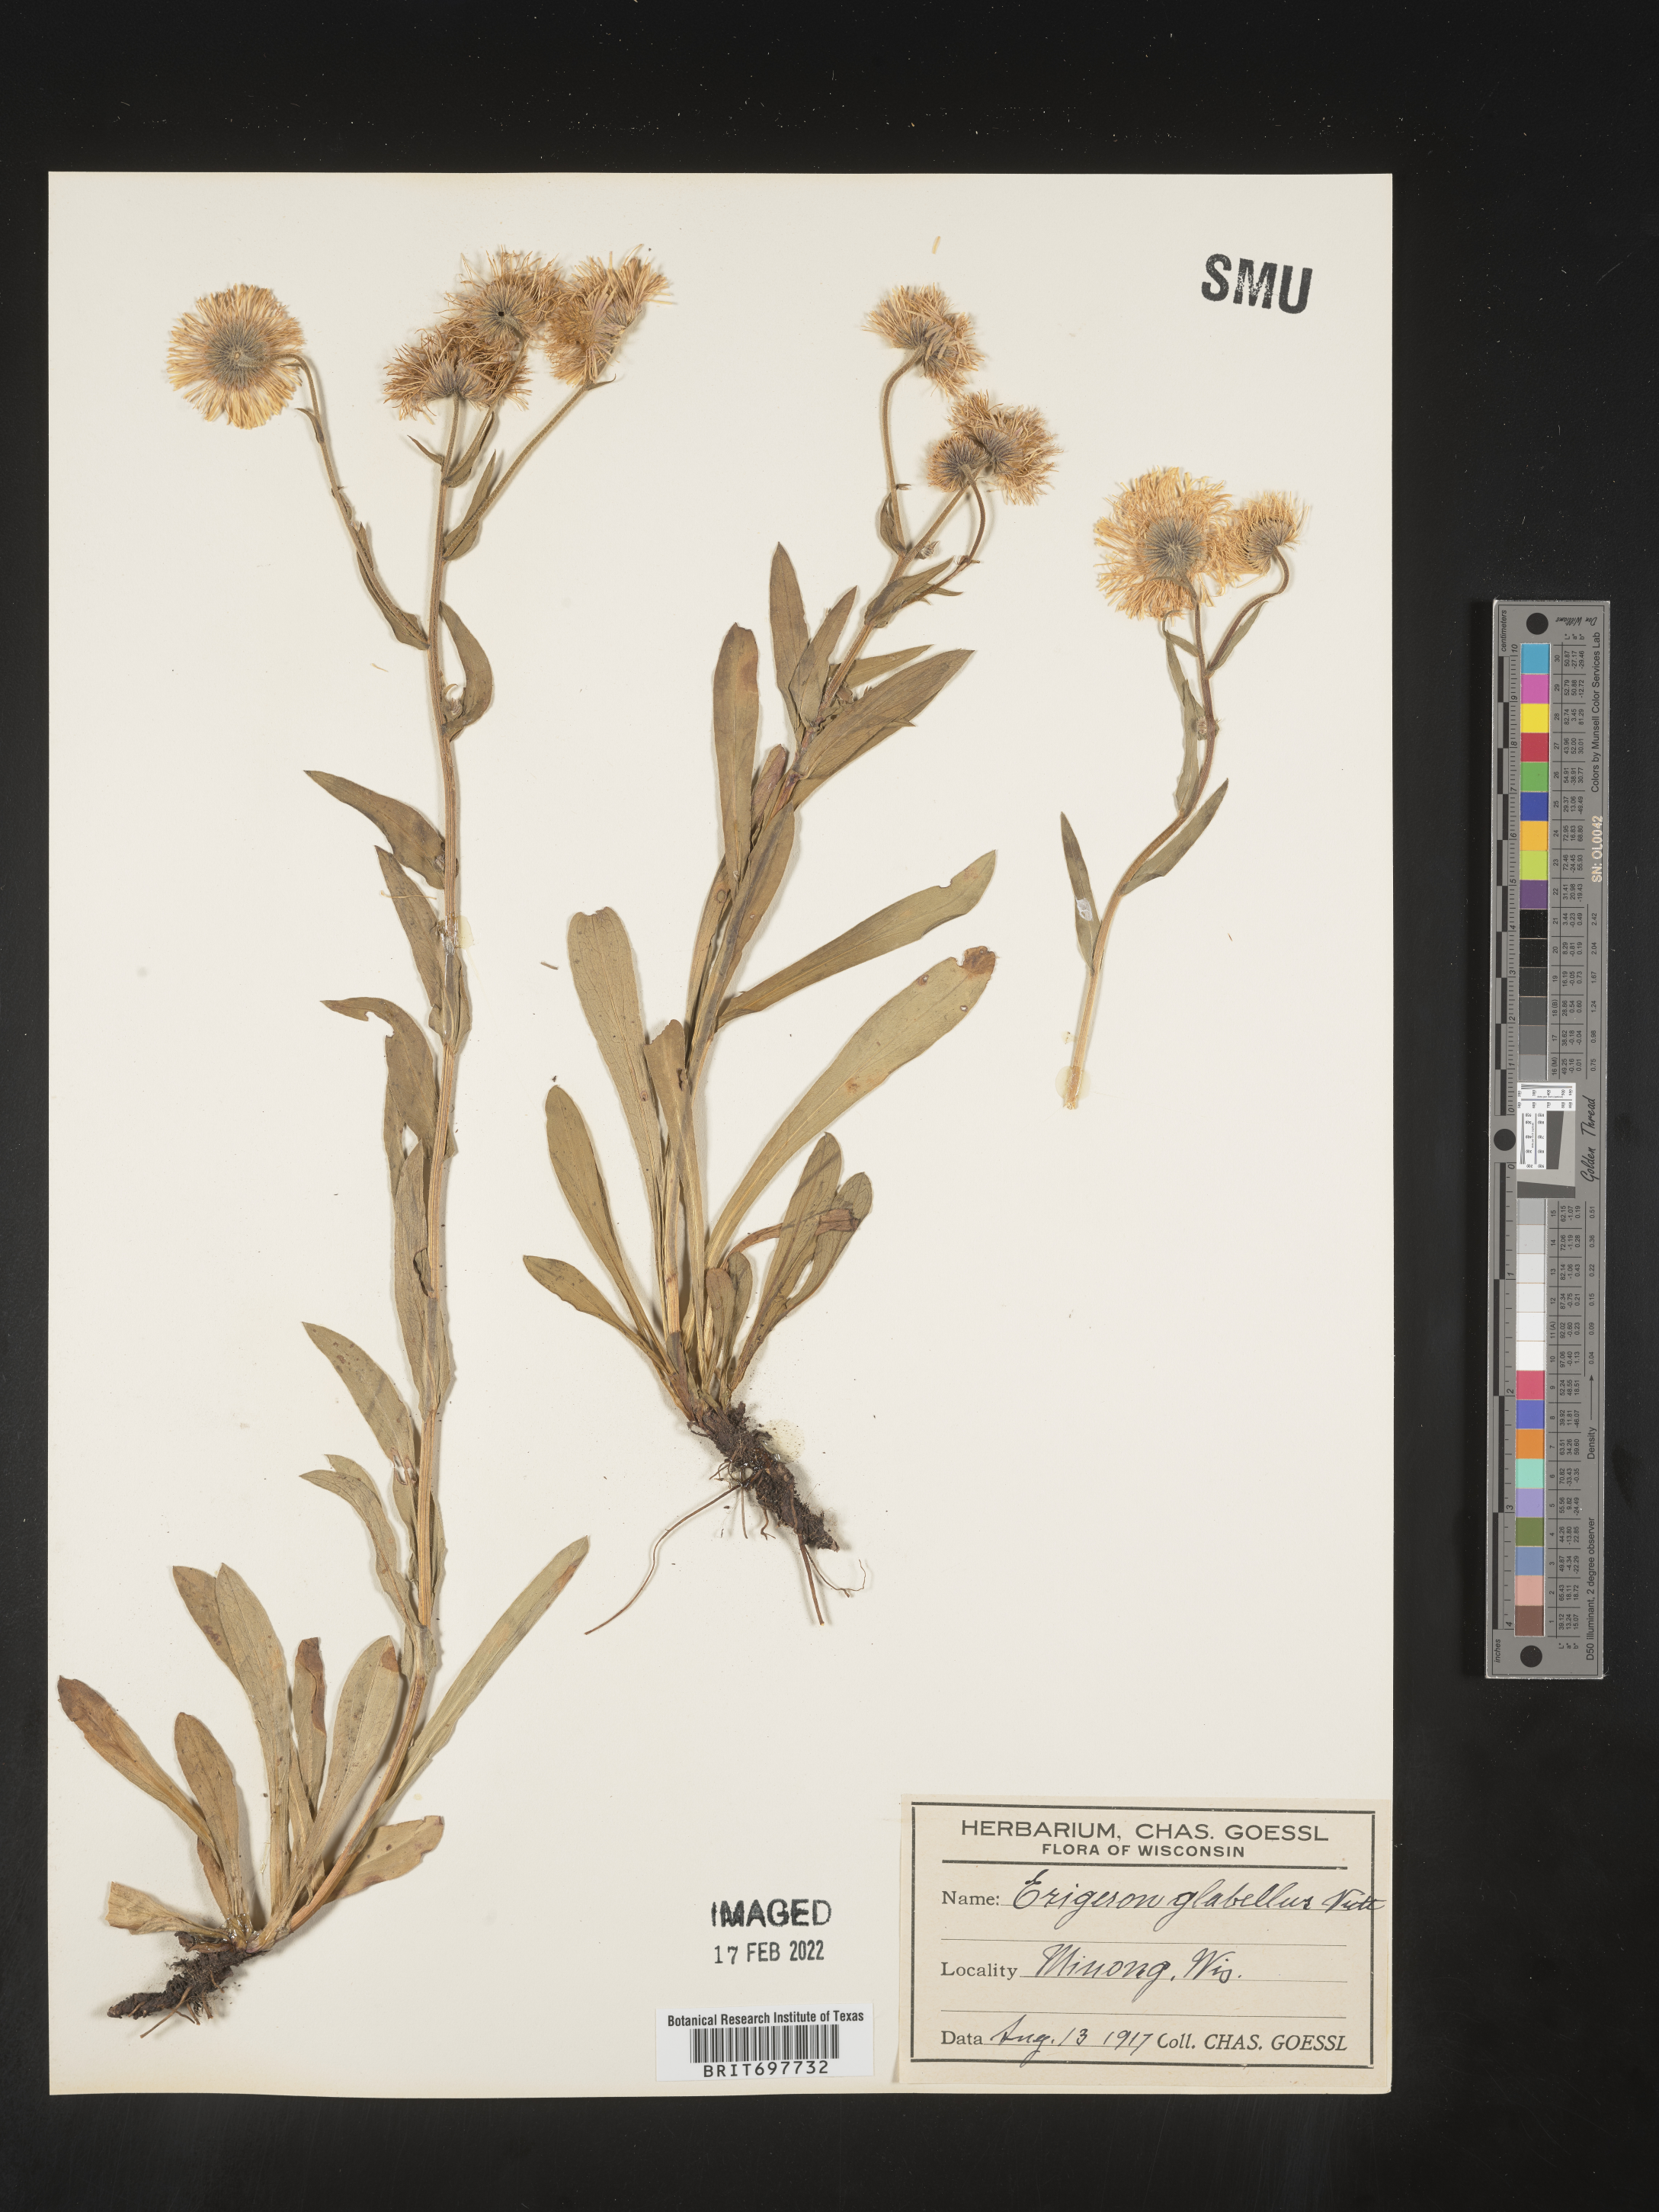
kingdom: Plantae
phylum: Tracheophyta
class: Magnoliopsida
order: Asterales
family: Asteraceae
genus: Erigeron
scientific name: Erigeron glabellus
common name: Smooth fleabane
